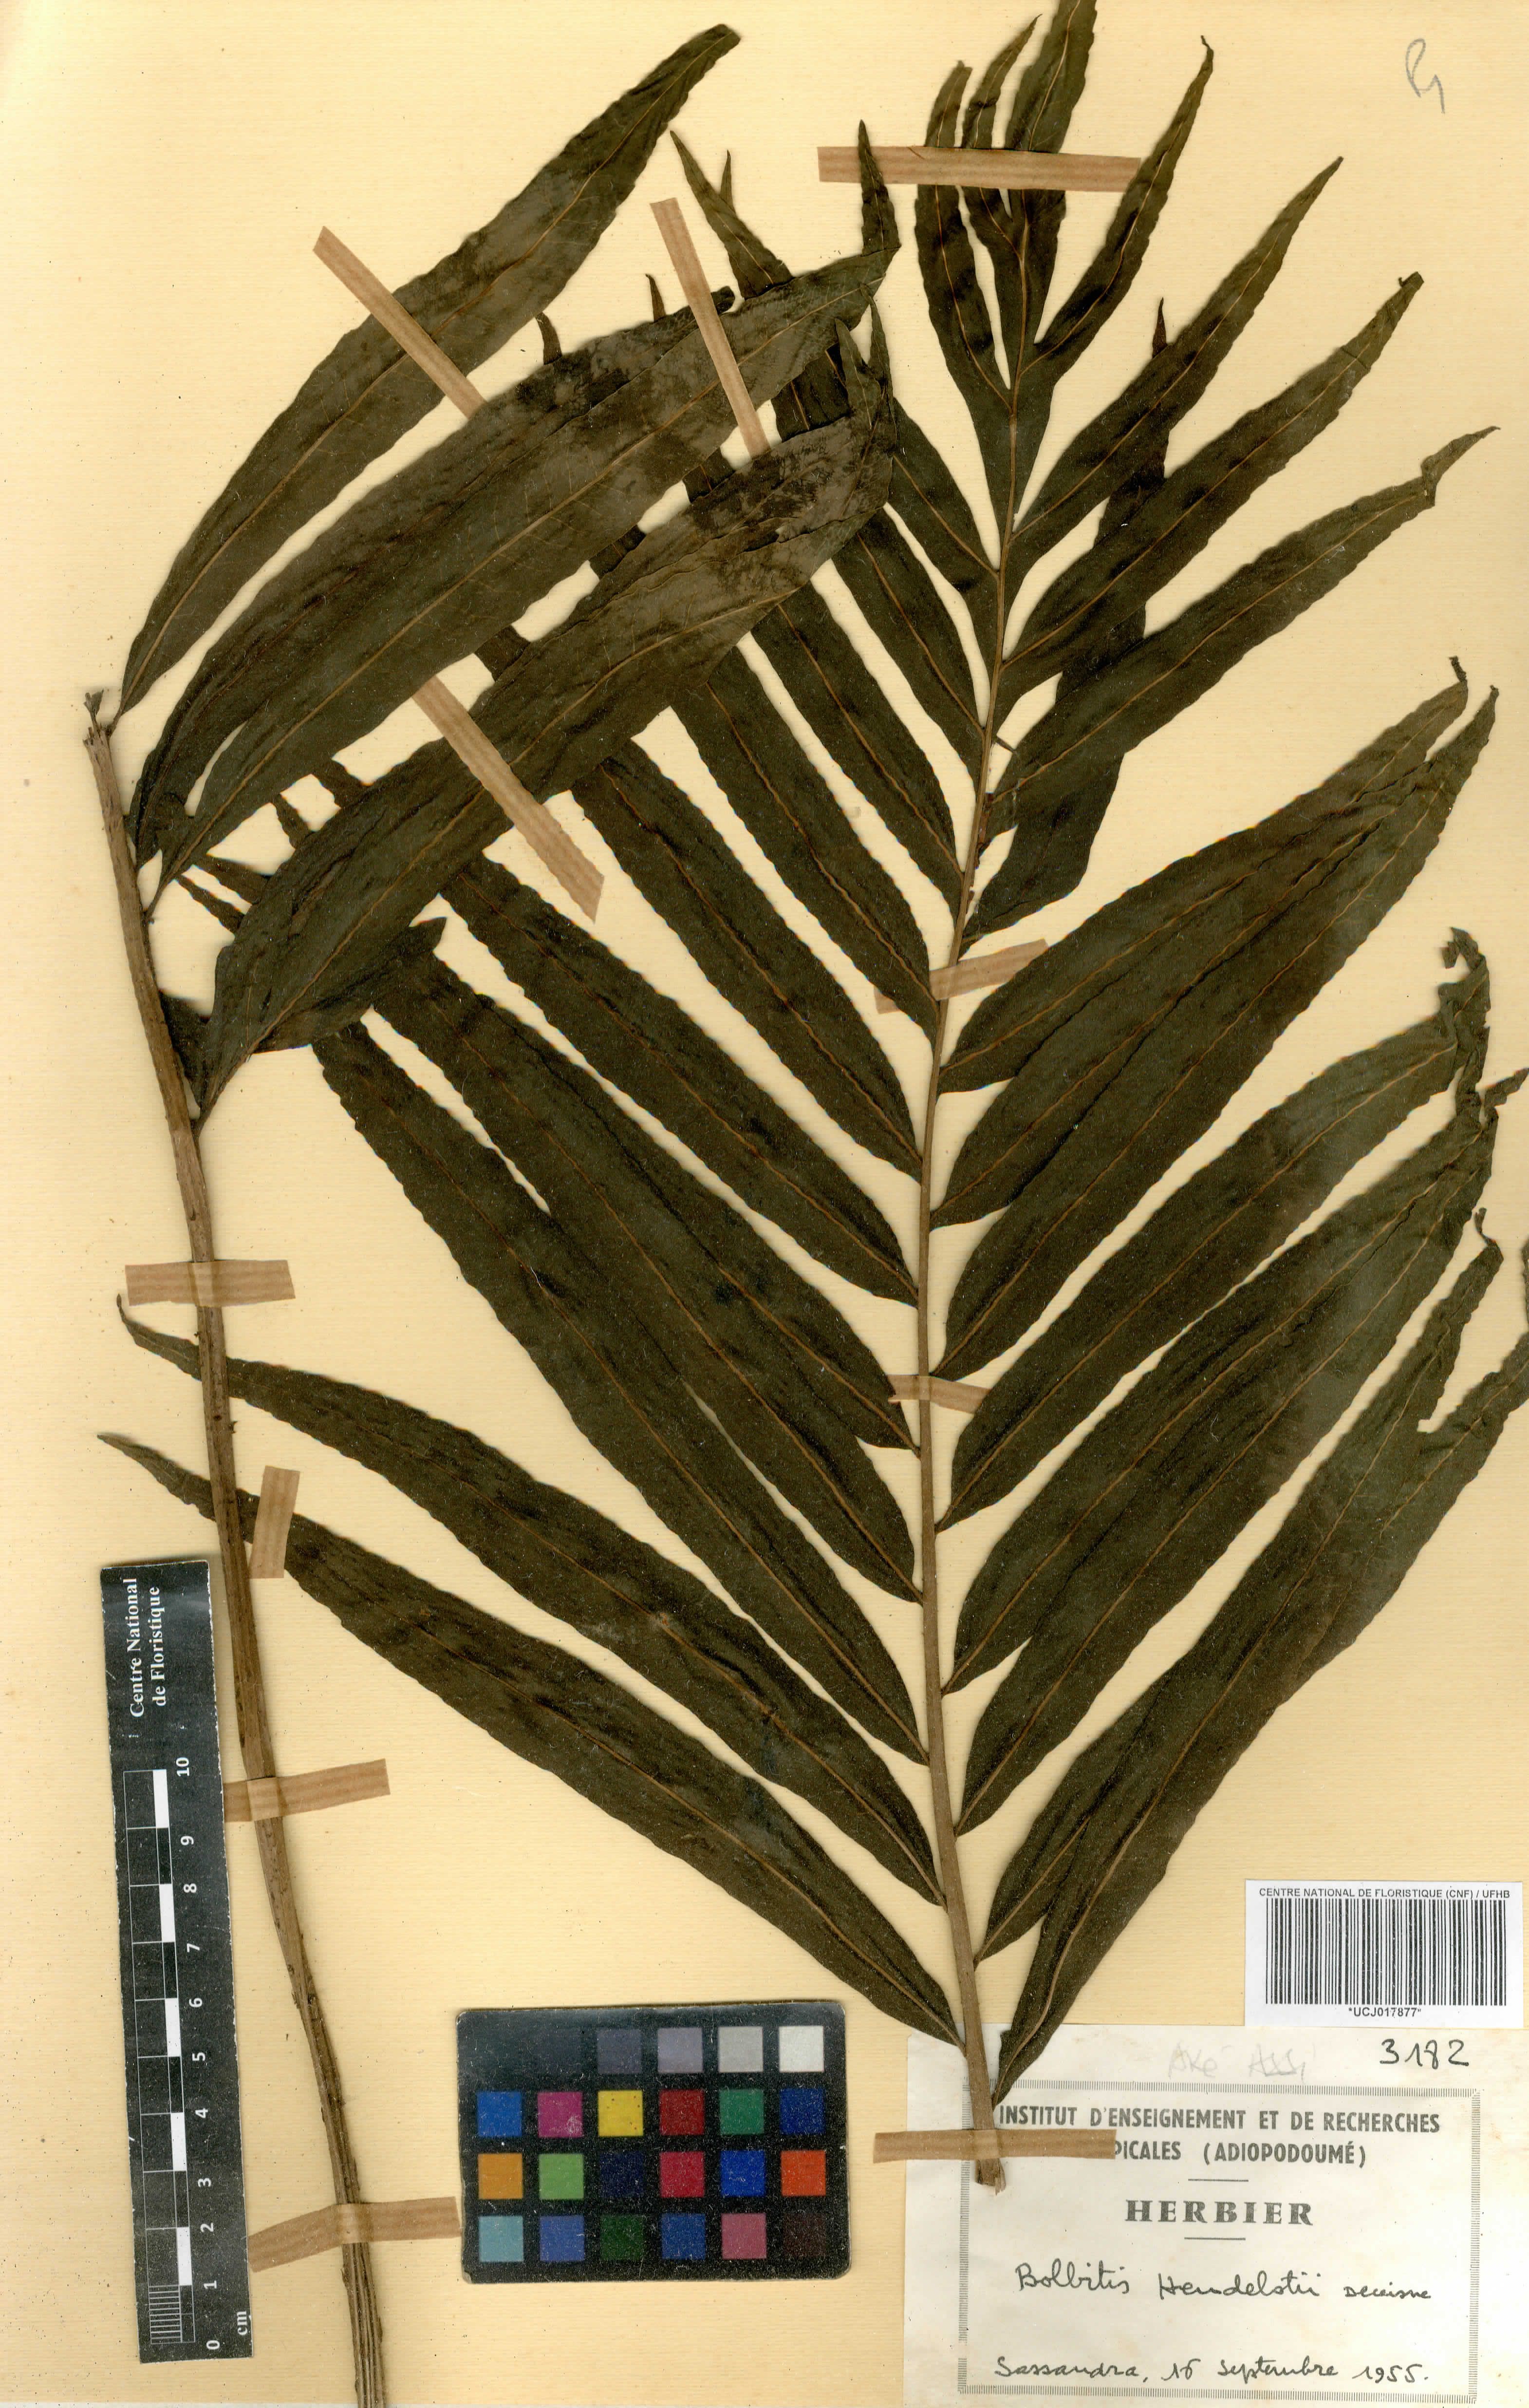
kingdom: Plantae
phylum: Tracheophyta
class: Polypodiopsida
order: Polypodiales
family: Dryopteridaceae
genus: Bolbitis
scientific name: Bolbitis heudelotii
